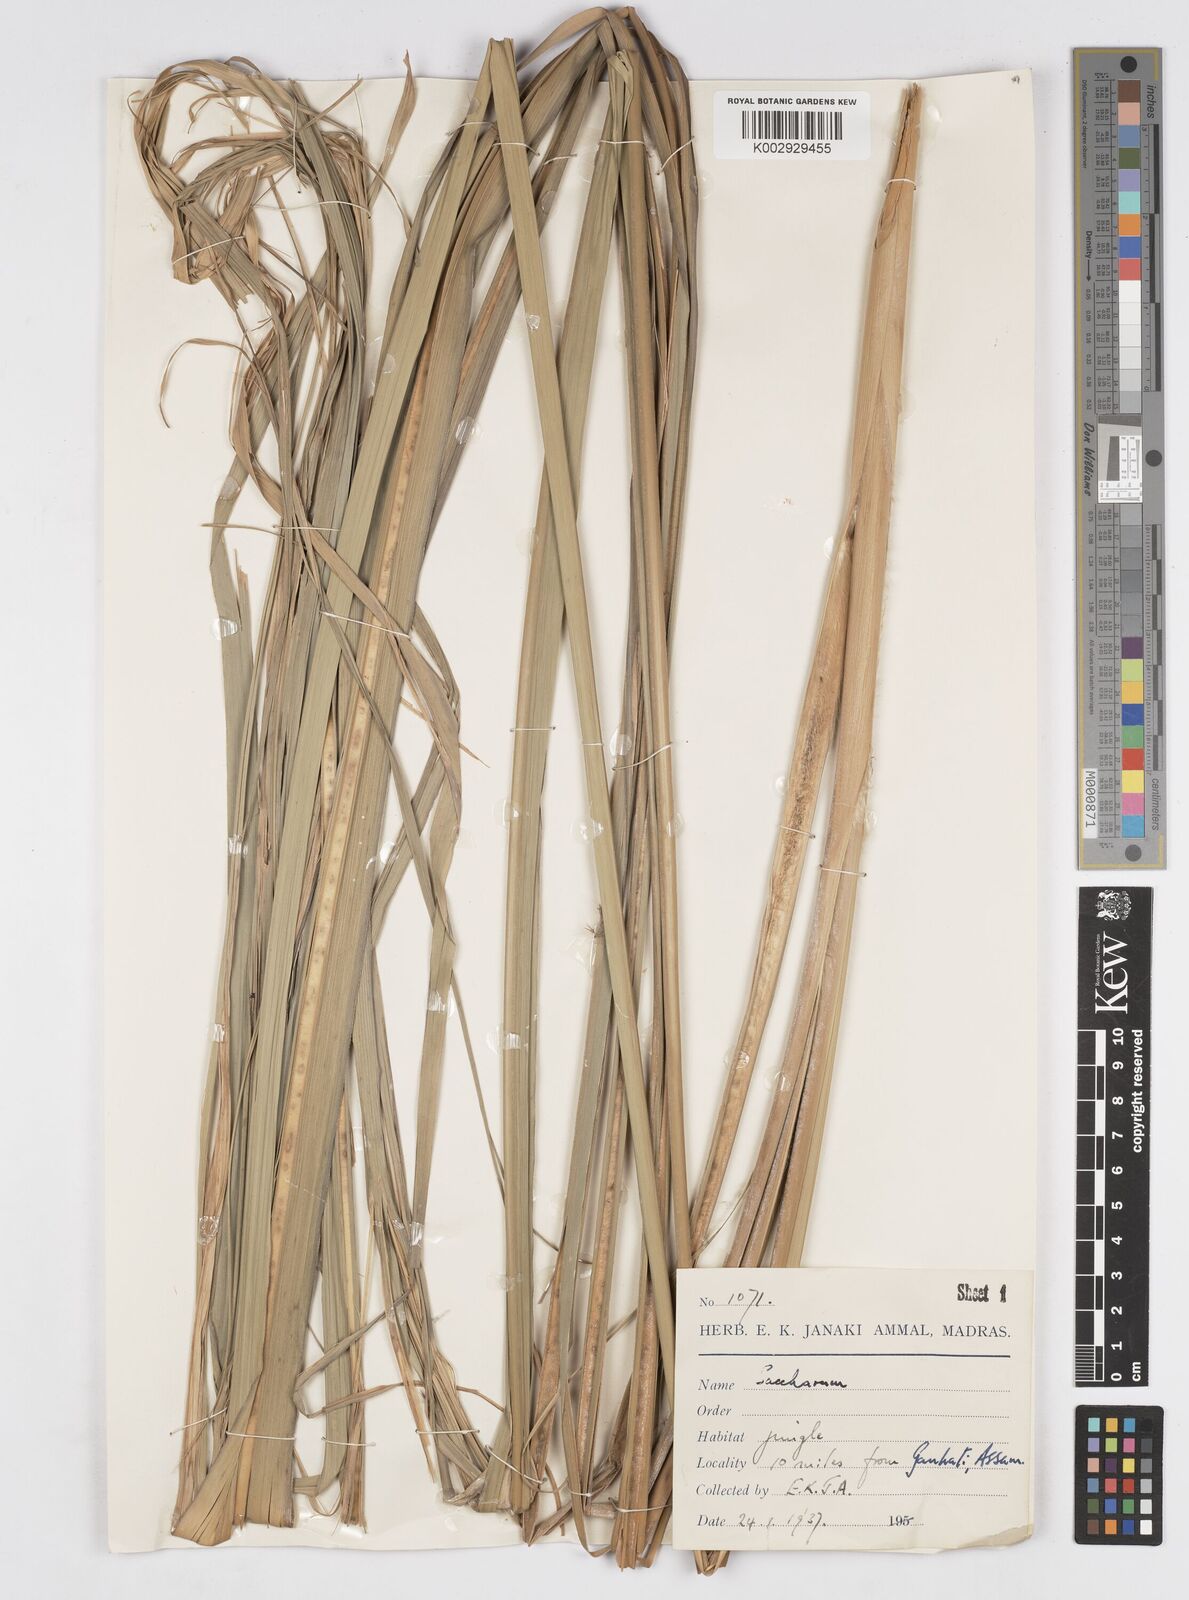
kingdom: Plantae
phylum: Tracheophyta
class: Liliopsida
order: Poales
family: Poaceae
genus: Saccharum
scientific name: Saccharum
